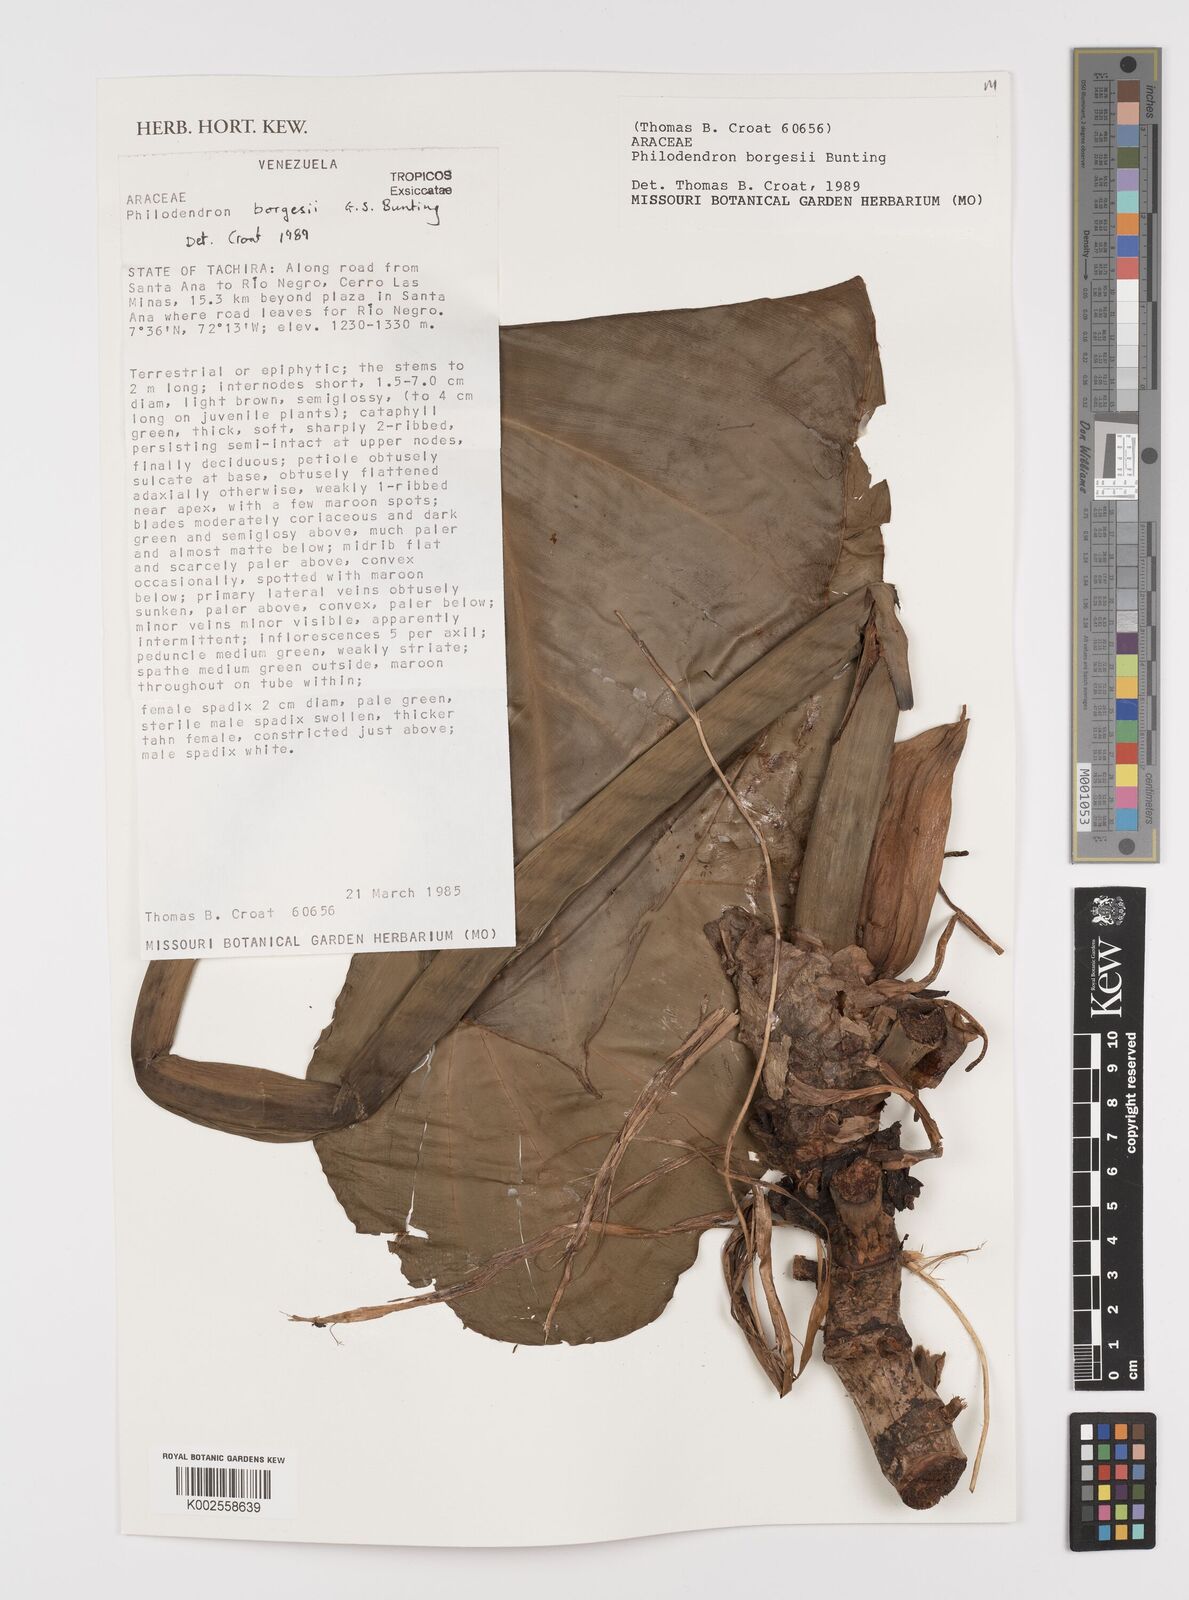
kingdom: Plantae
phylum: Tracheophyta
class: Liliopsida
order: Alismatales
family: Araceae
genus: Philodendron
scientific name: Philodendron borgesii
